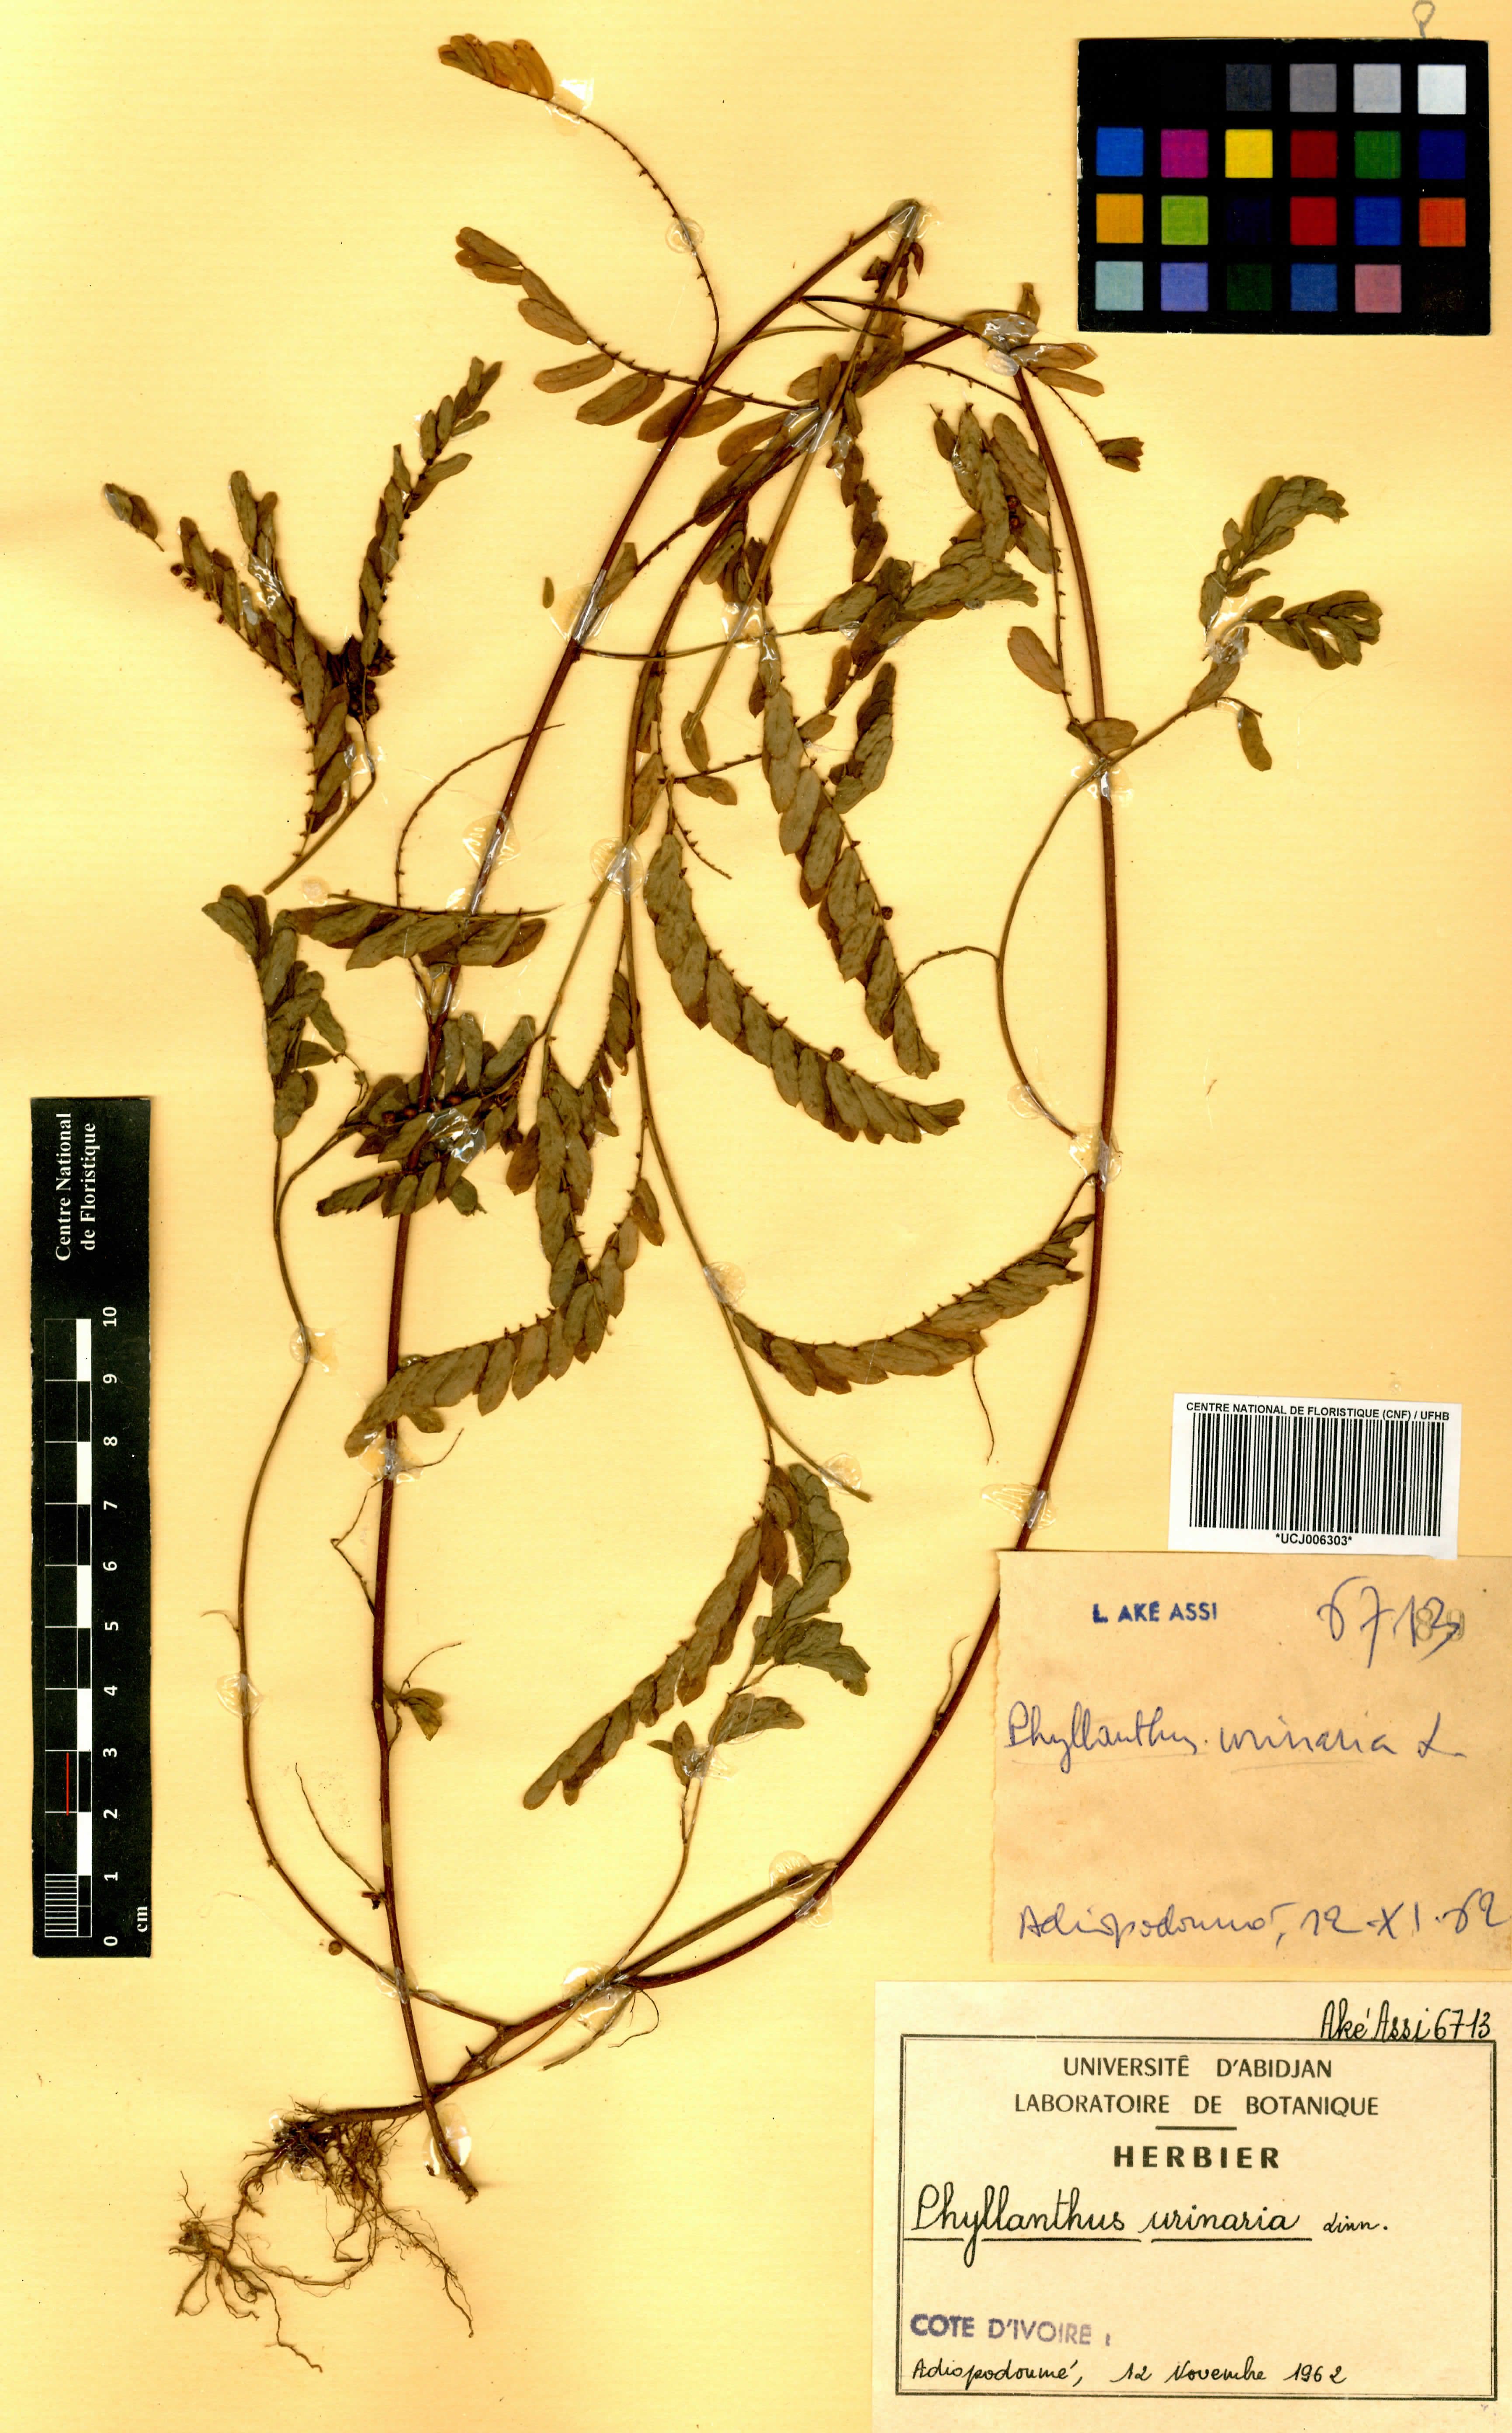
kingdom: Plantae
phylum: Tracheophyta
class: Magnoliopsida
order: Malpighiales
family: Phyllanthaceae
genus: Phyllanthus
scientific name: Phyllanthus urinaria
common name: Chamber bitter
